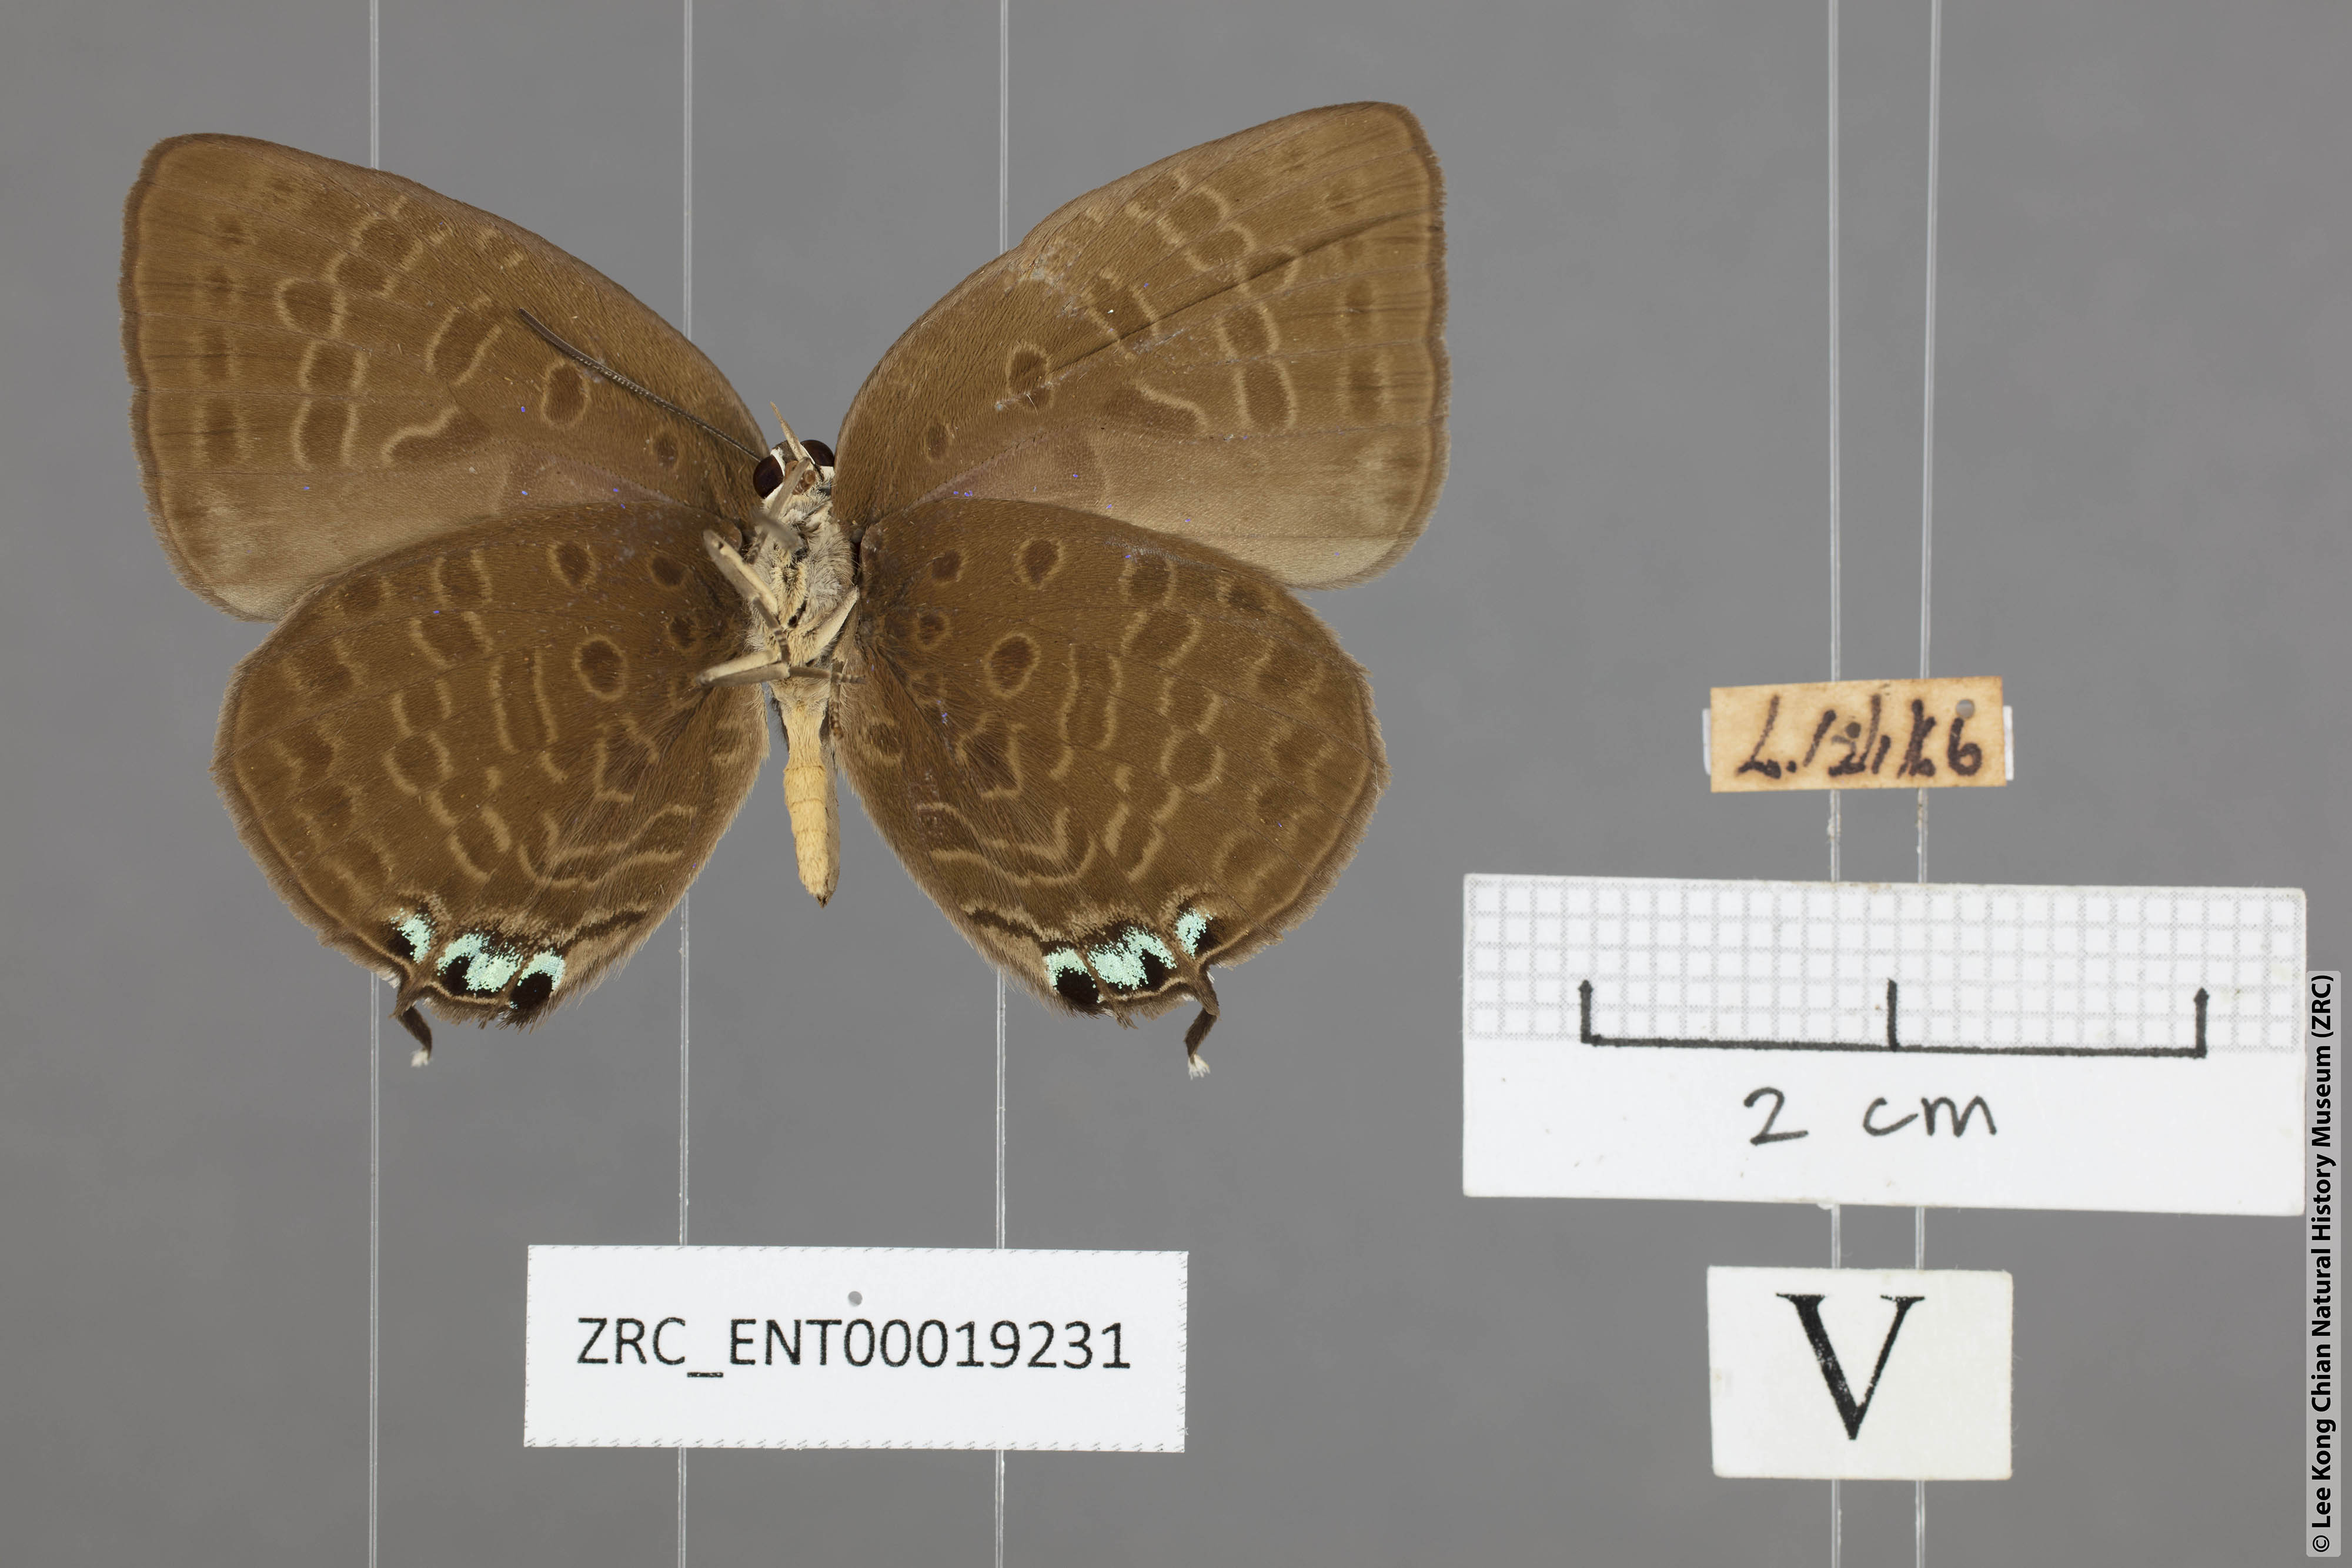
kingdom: Animalia
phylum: Arthropoda
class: Insecta
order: Lepidoptera
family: Lycaenidae
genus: Arhopala
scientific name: Arhopala atosia
